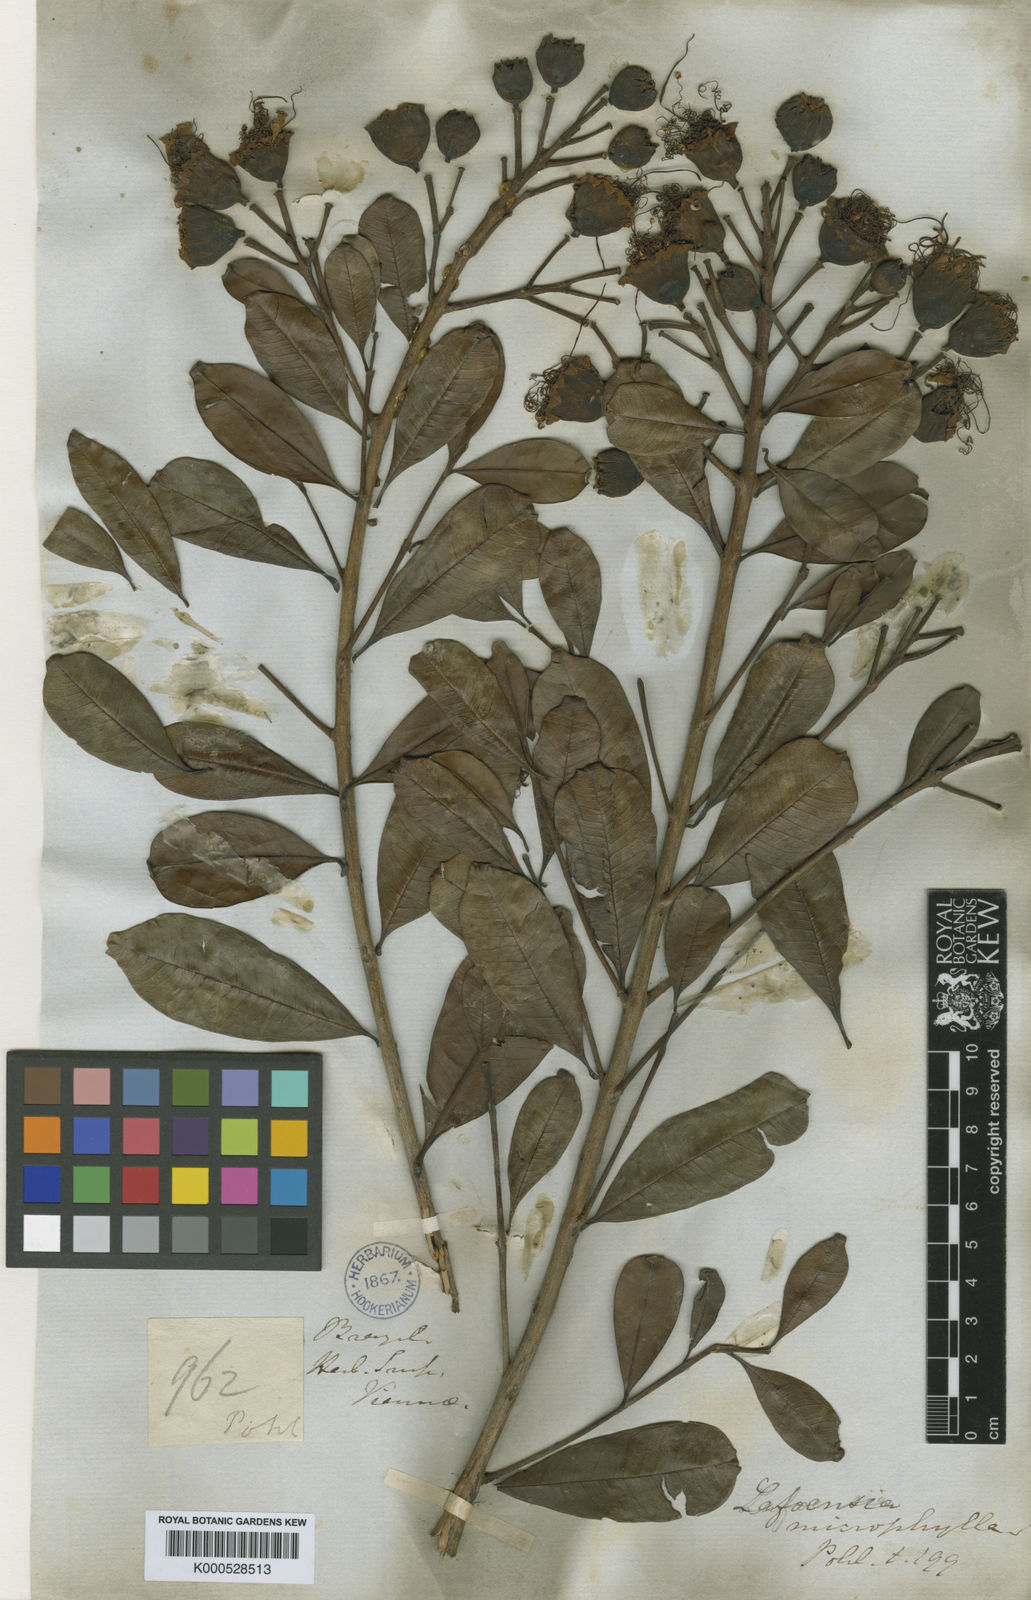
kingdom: Plantae
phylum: Tracheophyta
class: Magnoliopsida
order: Myrtales
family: Lythraceae
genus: Lafoensia
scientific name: Lafoensia vandelliana
